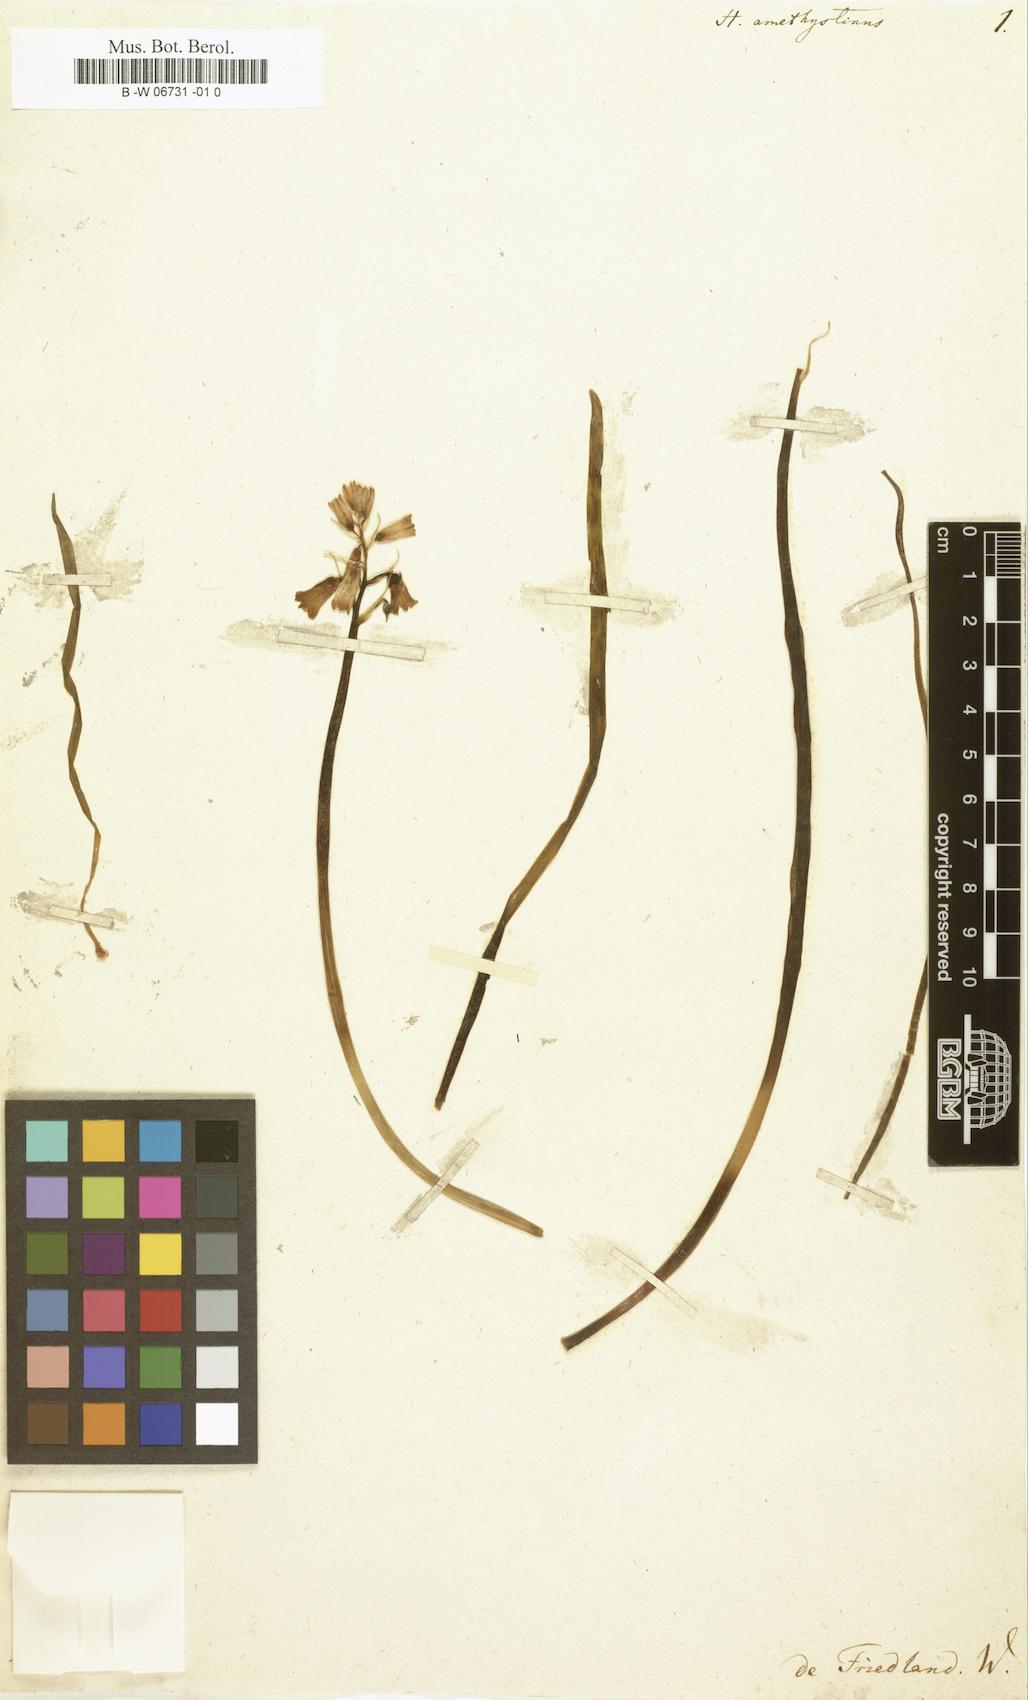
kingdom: Plantae
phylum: Tracheophyta
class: Liliopsida
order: Asparagales
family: Asparagaceae
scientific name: Asparagaceae
